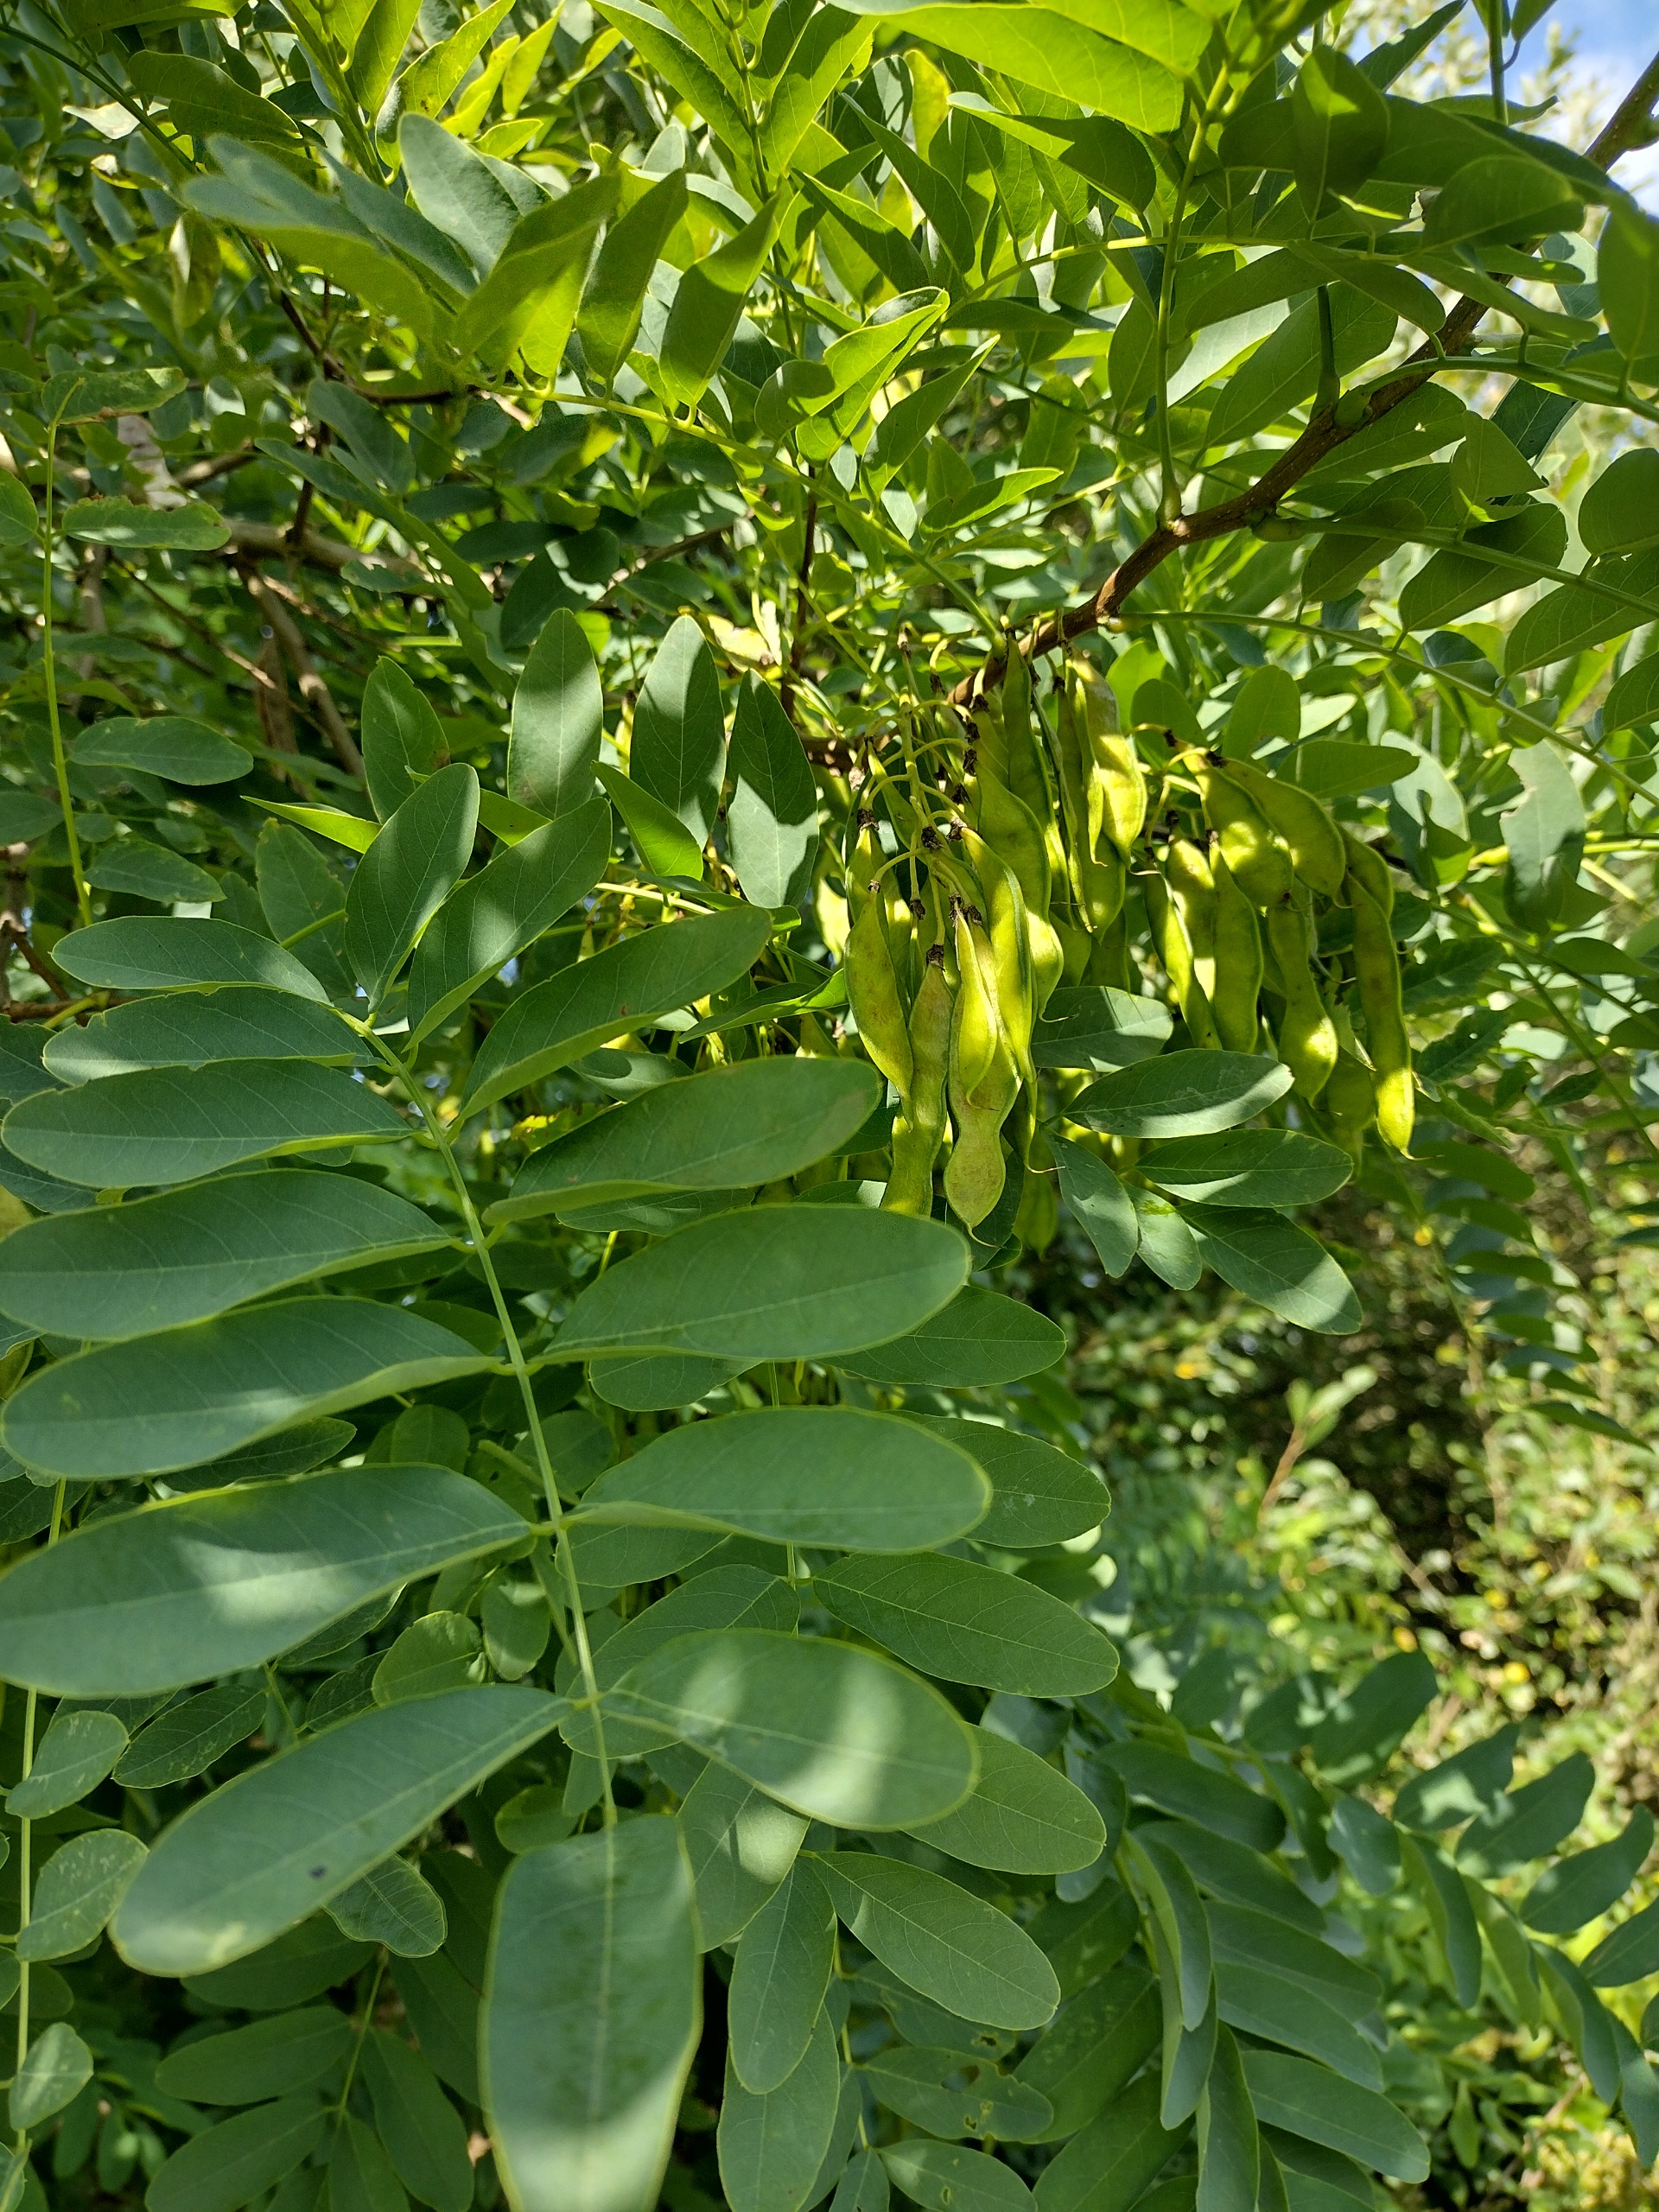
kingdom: Plantae
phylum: Tracheophyta
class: Magnoliopsida
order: Fabales
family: Fabaceae
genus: Robinia
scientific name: Robinia pseudoacacia
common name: Robinie
